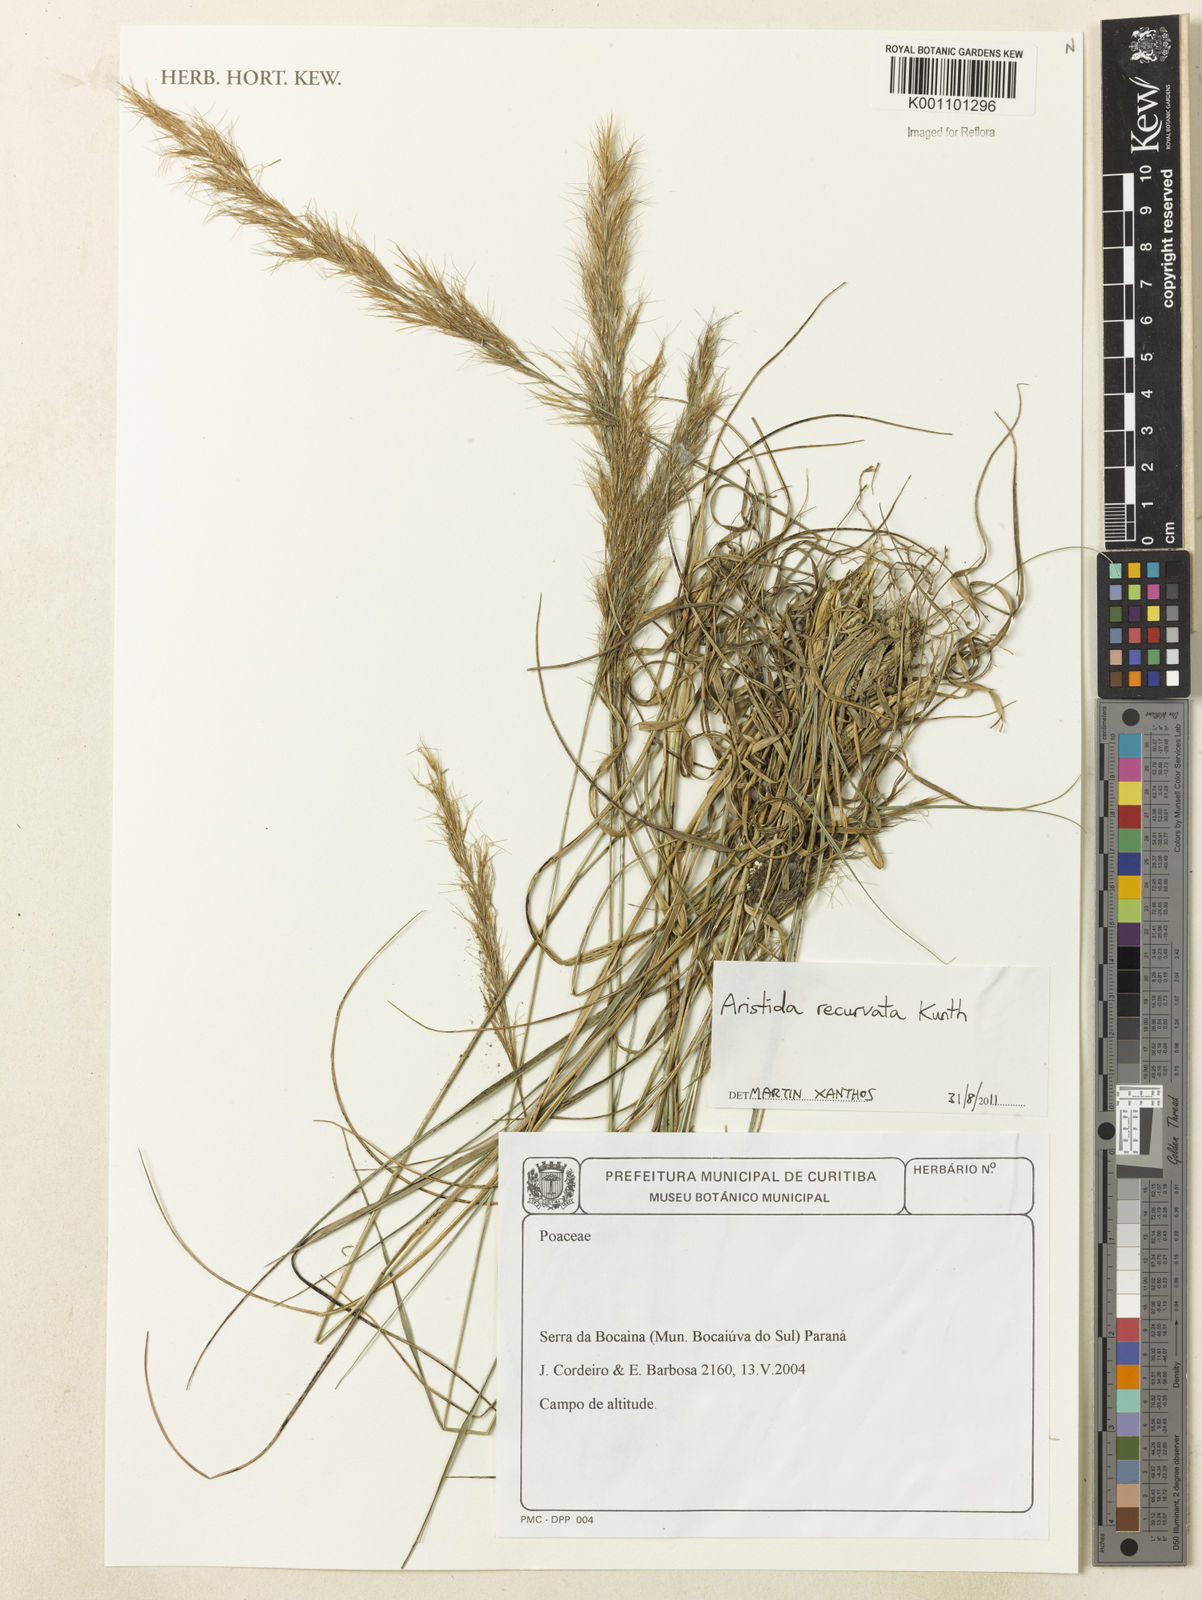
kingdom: Plantae
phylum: Tracheophyta
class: Liliopsida
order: Poales
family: Poaceae
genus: Aristida
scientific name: Aristida recurvata
